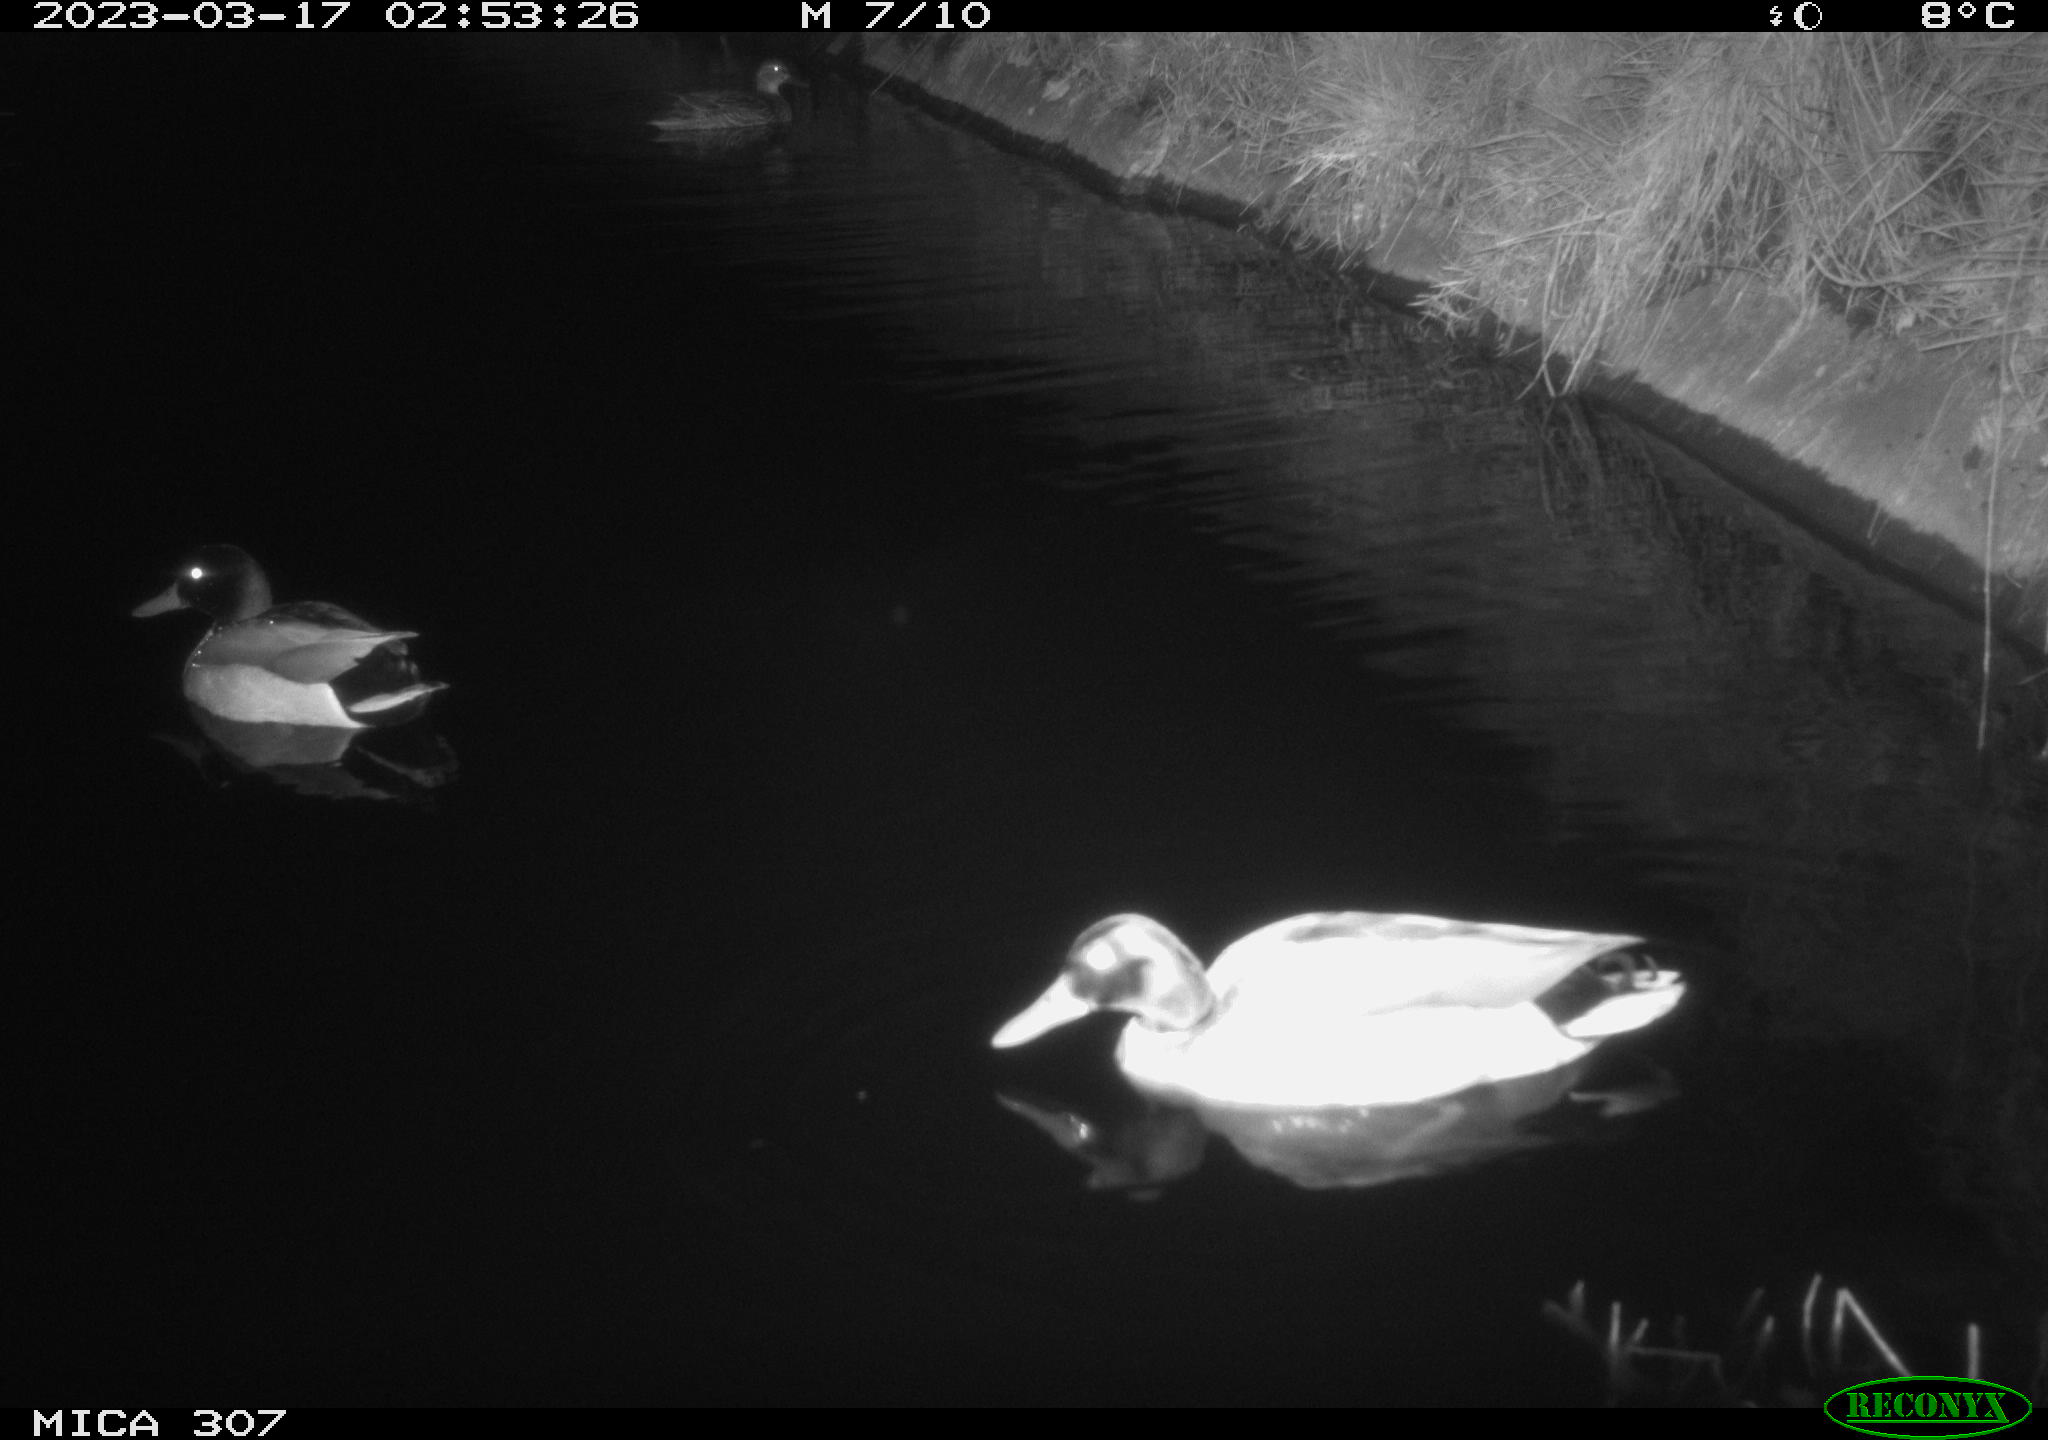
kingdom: Animalia
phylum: Chordata
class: Aves
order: Anseriformes
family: Anatidae
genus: Anas
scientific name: Anas
